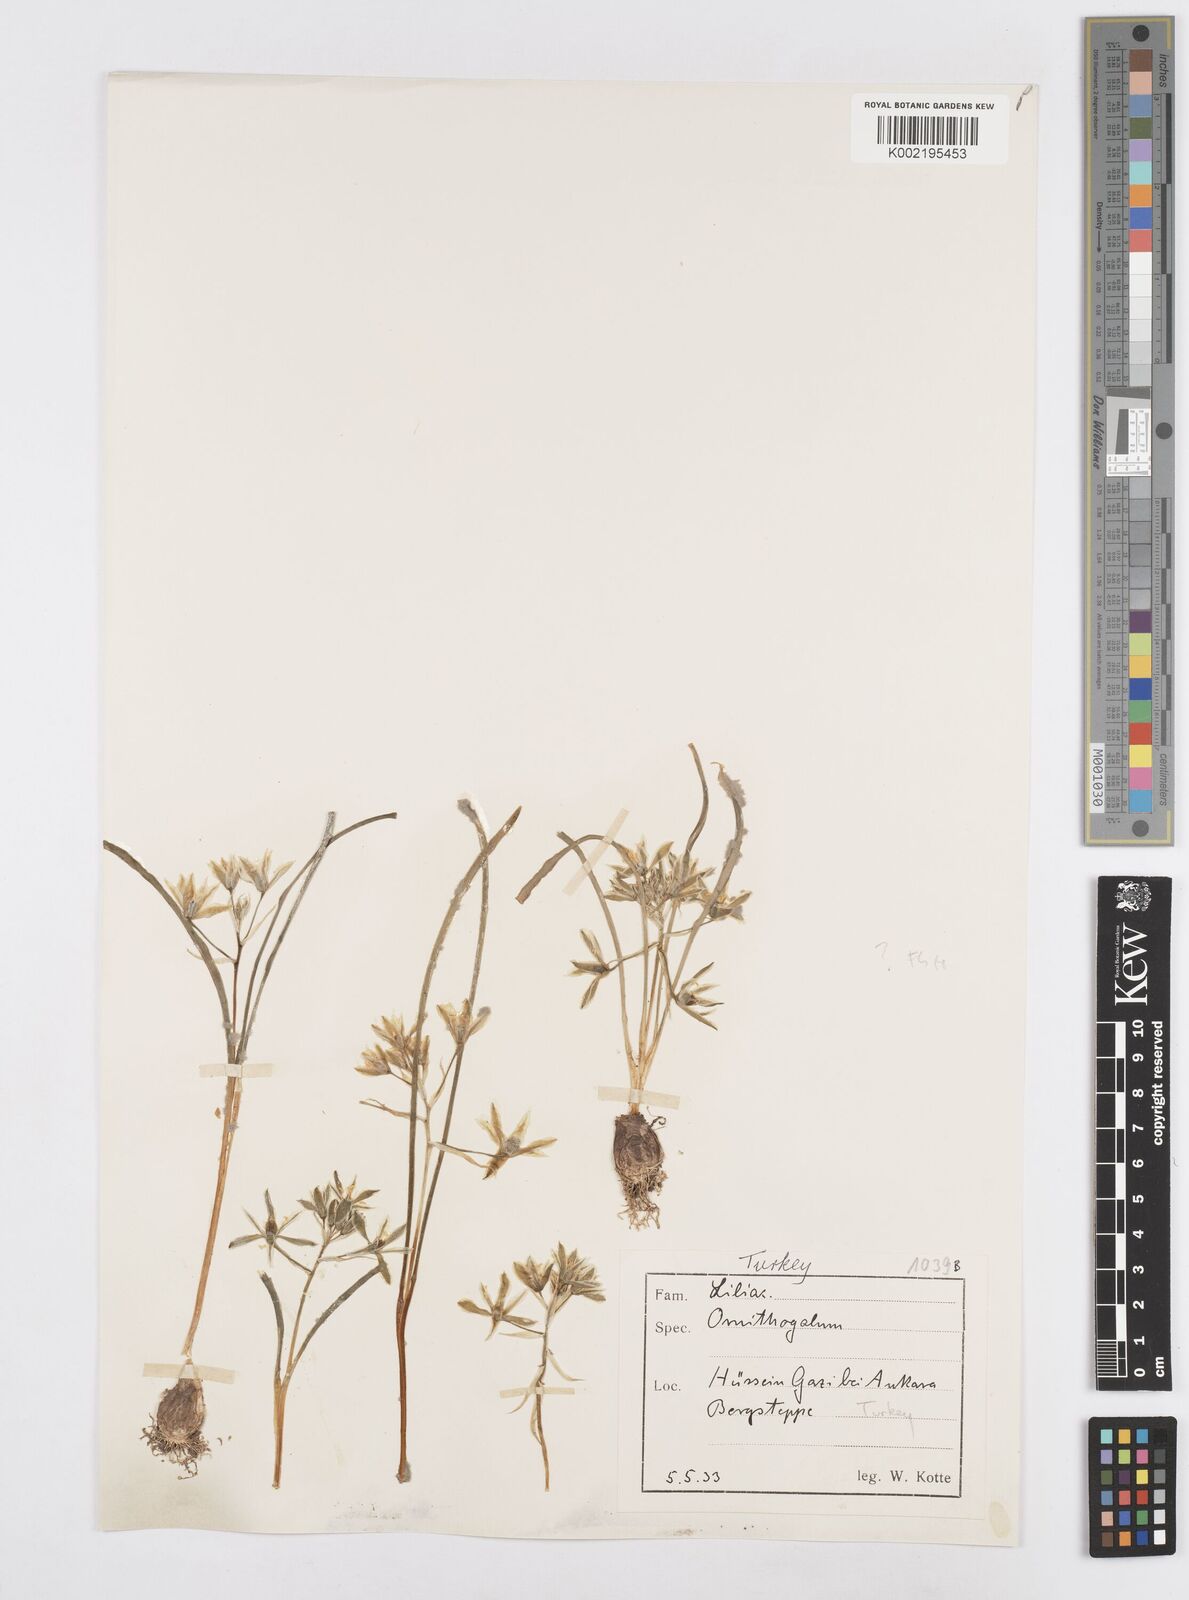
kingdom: Plantae
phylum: Tracheophyta
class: Liliopsida
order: Asparagales
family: Asparagaceae
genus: Ornithogalum
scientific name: Ornithogalum
